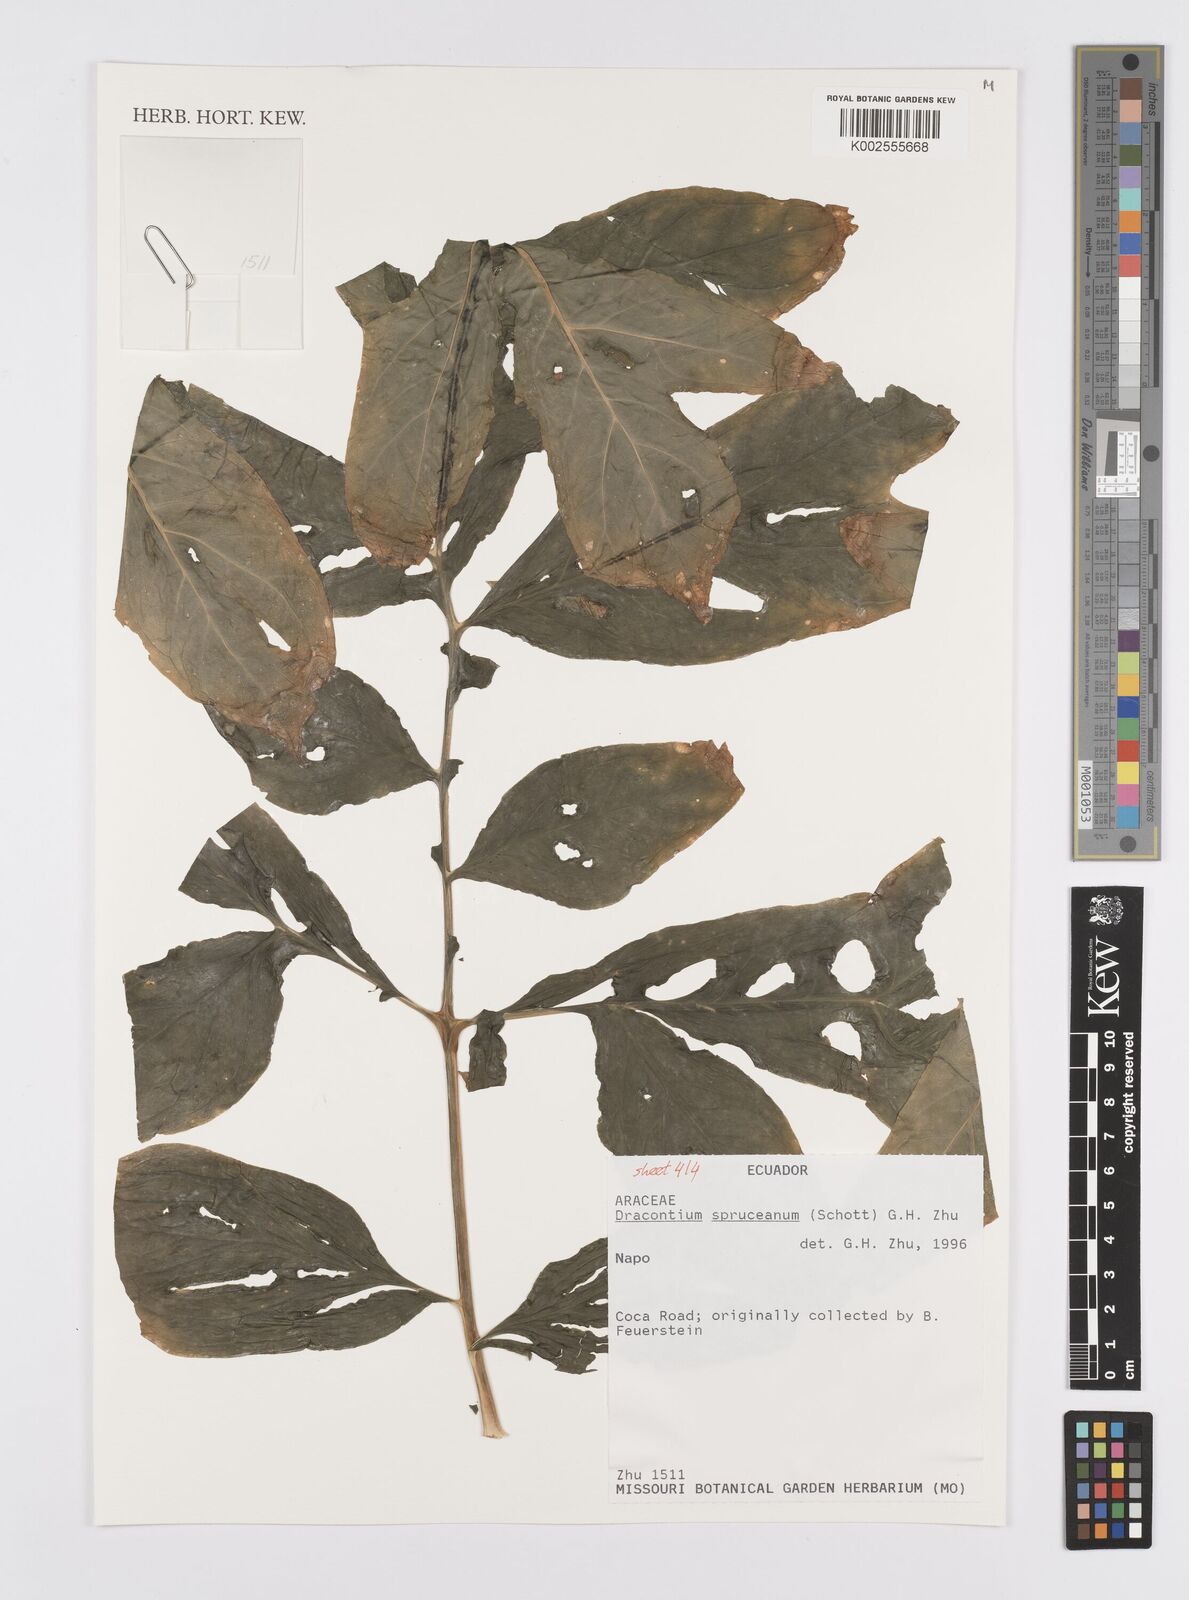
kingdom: Plantae
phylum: Tracheophyta
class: Liliopsida
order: Alismatales
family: Araceae
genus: Dracontium
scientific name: Dracontium spruceanum
